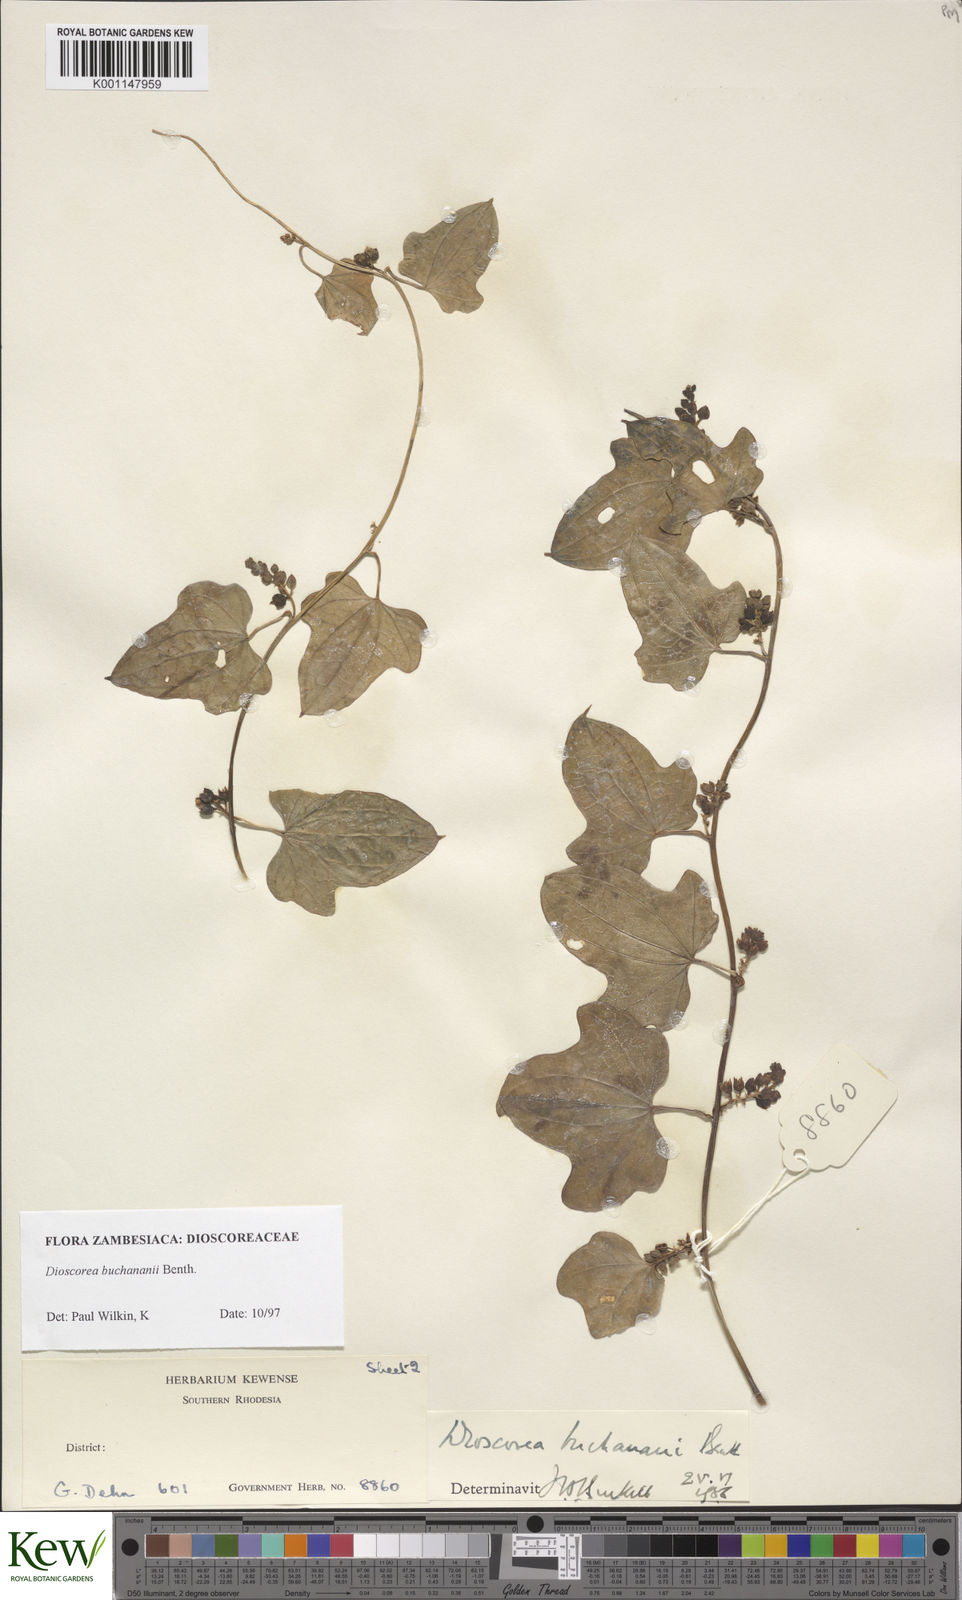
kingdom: Plantae
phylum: Tracheophyta
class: Liliopsida
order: Dioscoreales
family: Dioscoreaceae
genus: Dioscorea
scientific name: Dioscorea buchananii
